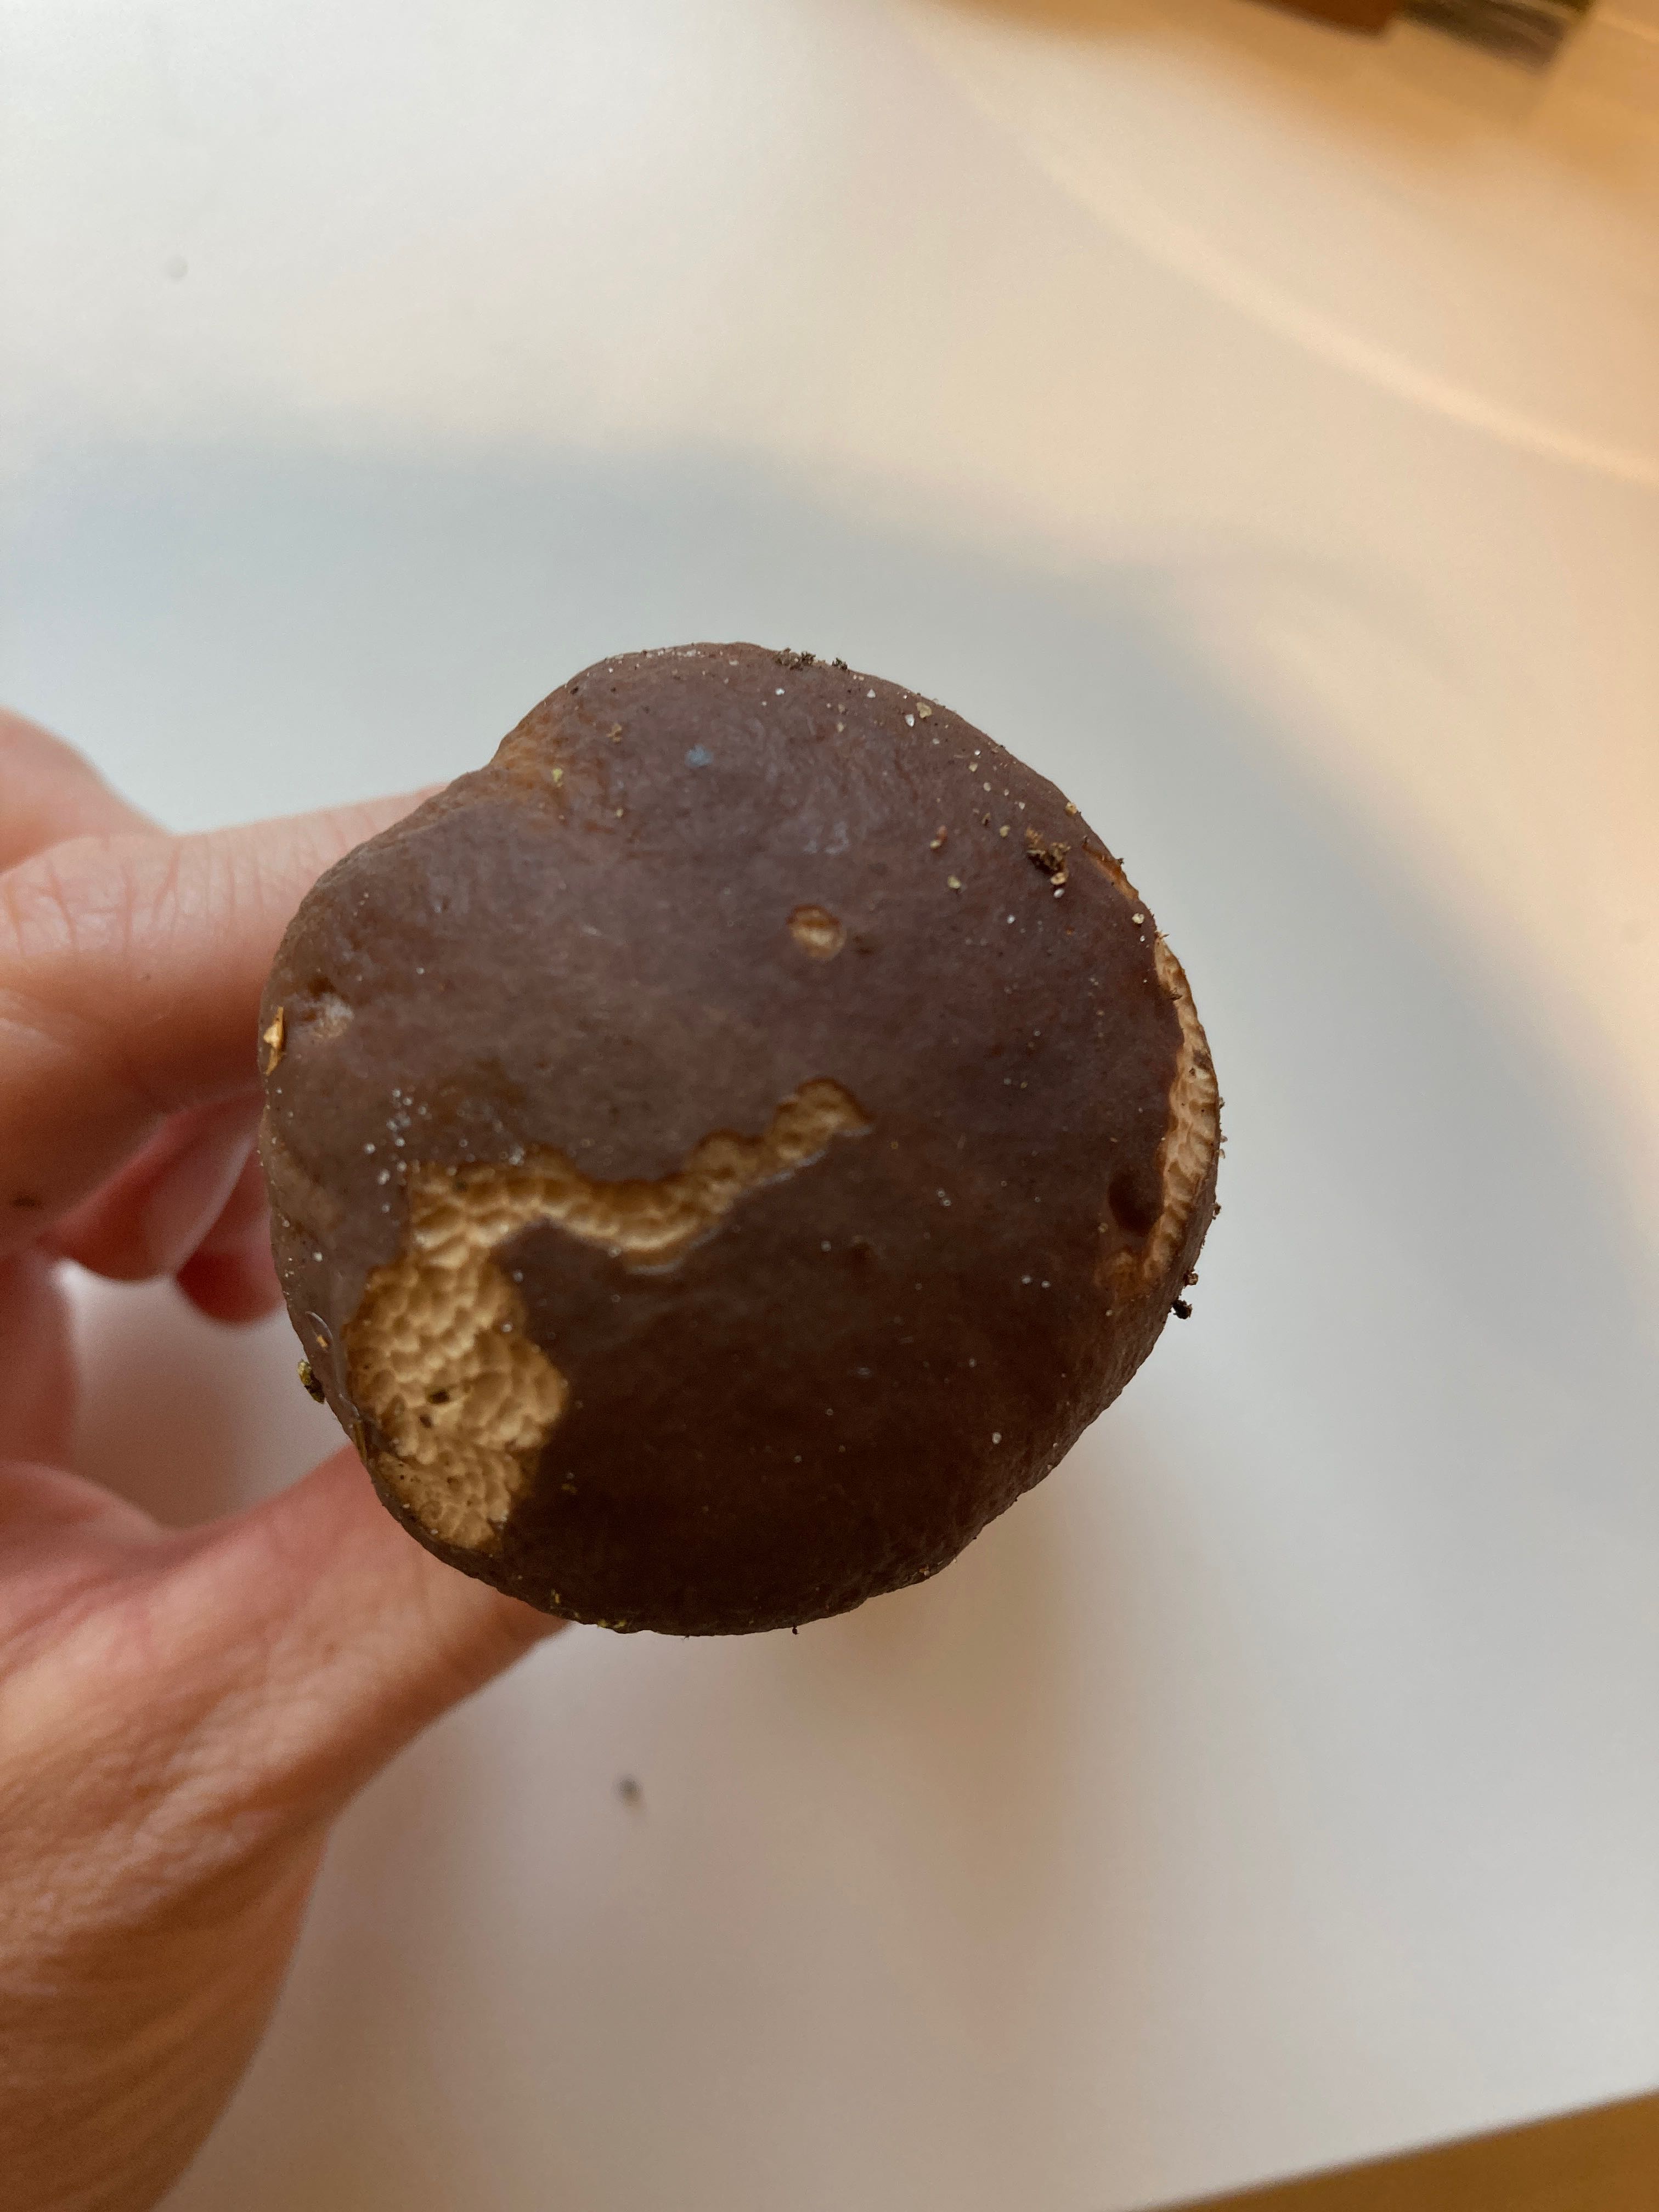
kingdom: Fungi
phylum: Basidiomycota
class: Agaricomycetes
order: Boletales
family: Boletaceae
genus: Boletus
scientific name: Boletus edulis
